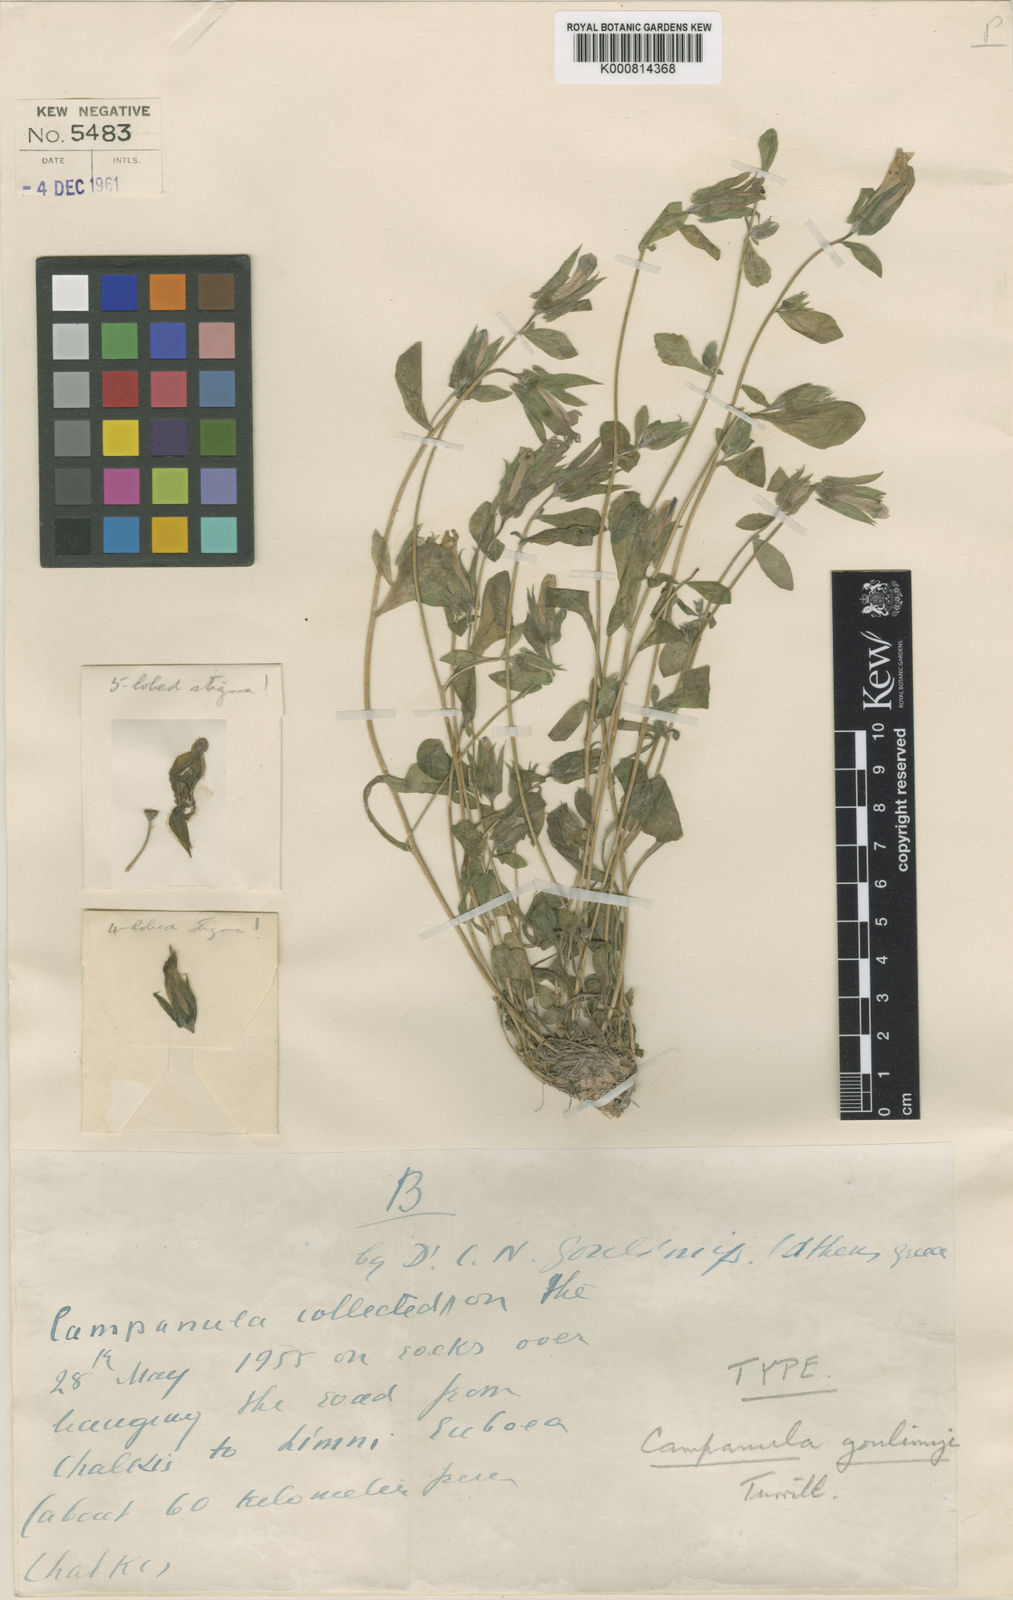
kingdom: Plantae
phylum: Tracheophyta
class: Magnoliopsida
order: Asterales
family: Campanulaceae
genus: Campanula
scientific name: Campanula goulimyi
